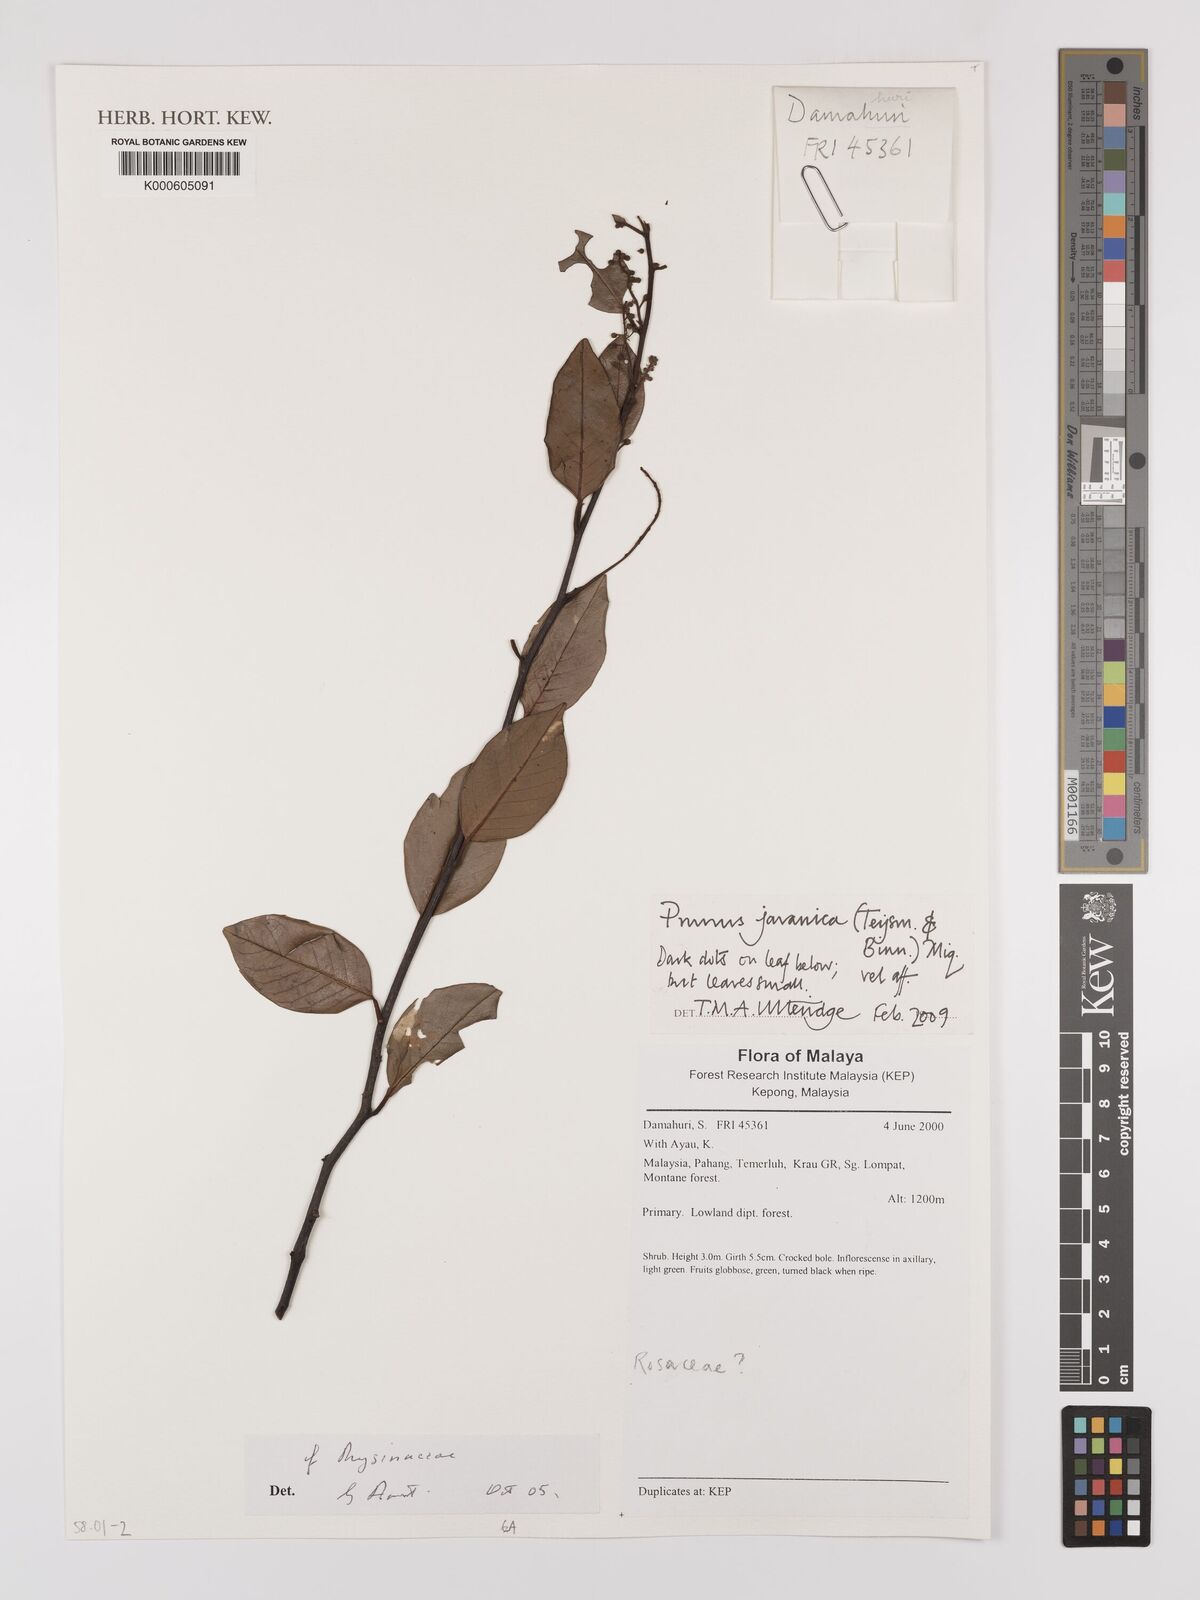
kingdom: Plantae
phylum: Tracheophyta
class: Magnoliopsida
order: Rosales
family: Rosaceae
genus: Prunus
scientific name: Prunus javanica
